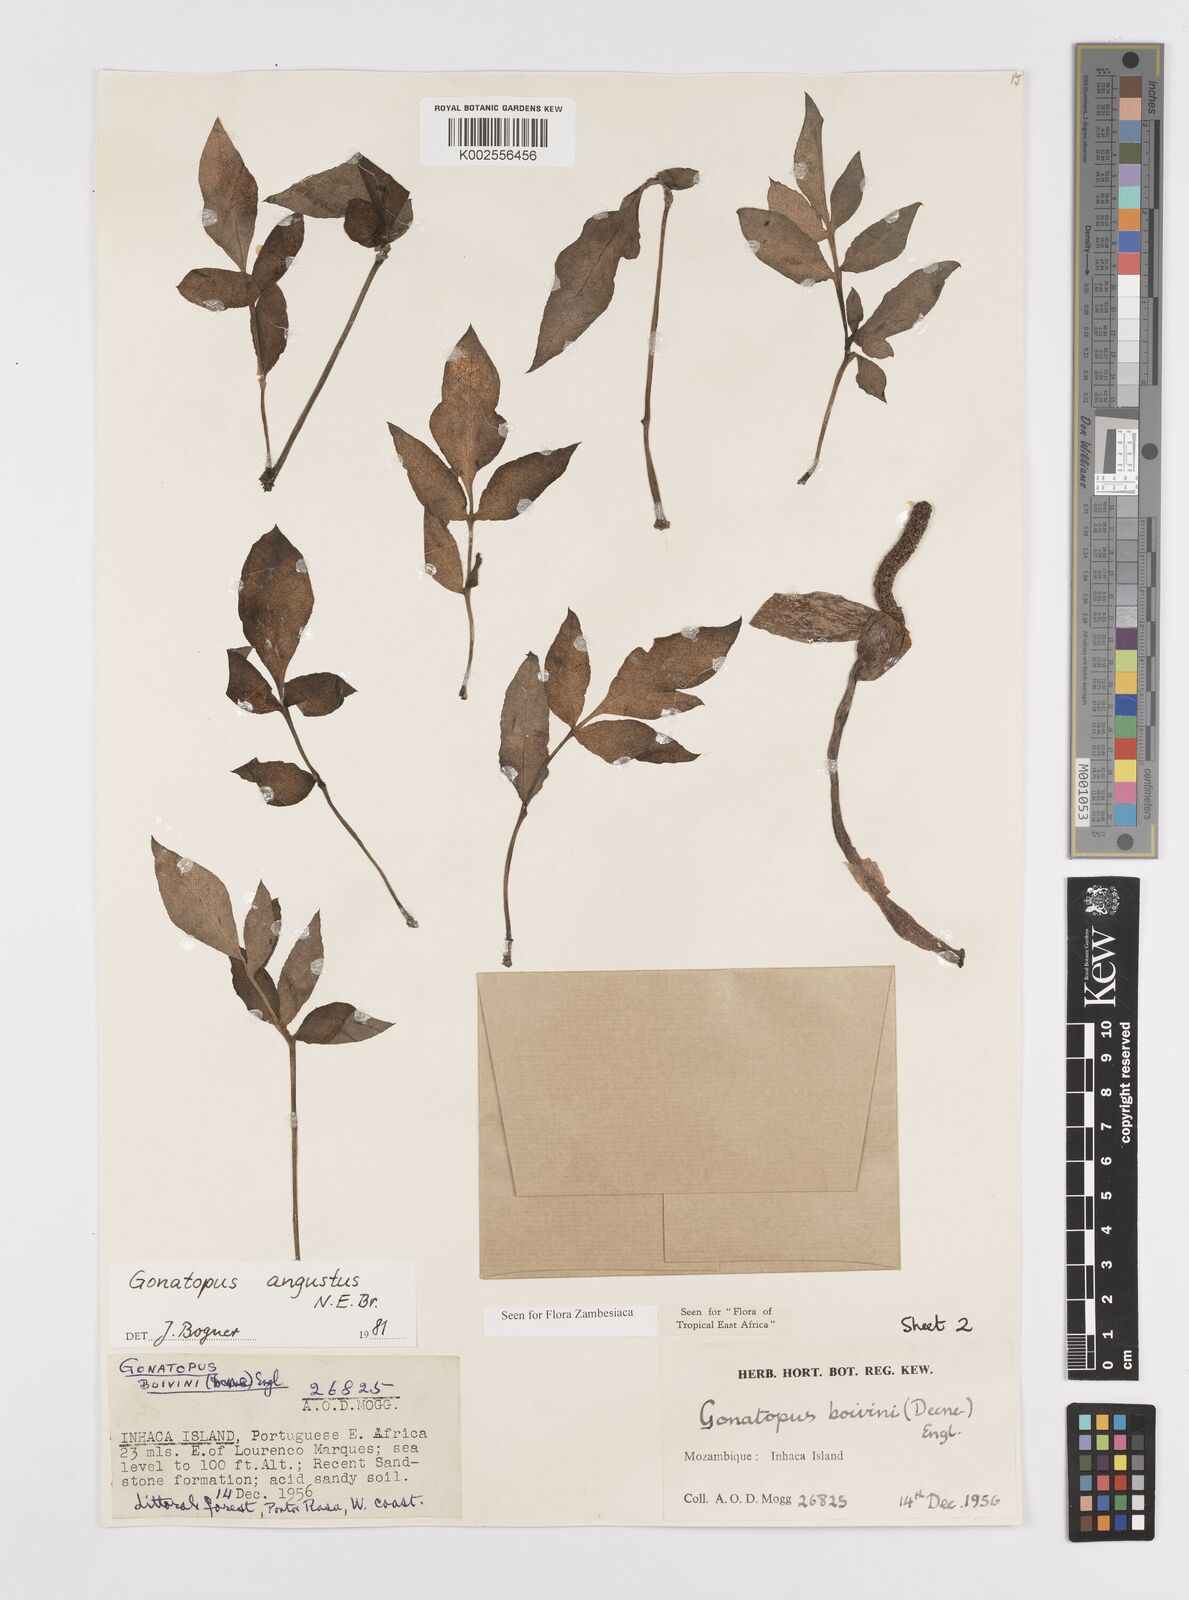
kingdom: Plantae
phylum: Tracheophyta
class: Liliopsida
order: Alismatales
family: Araceae
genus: Gonatopus
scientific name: Gonatopus angustus
